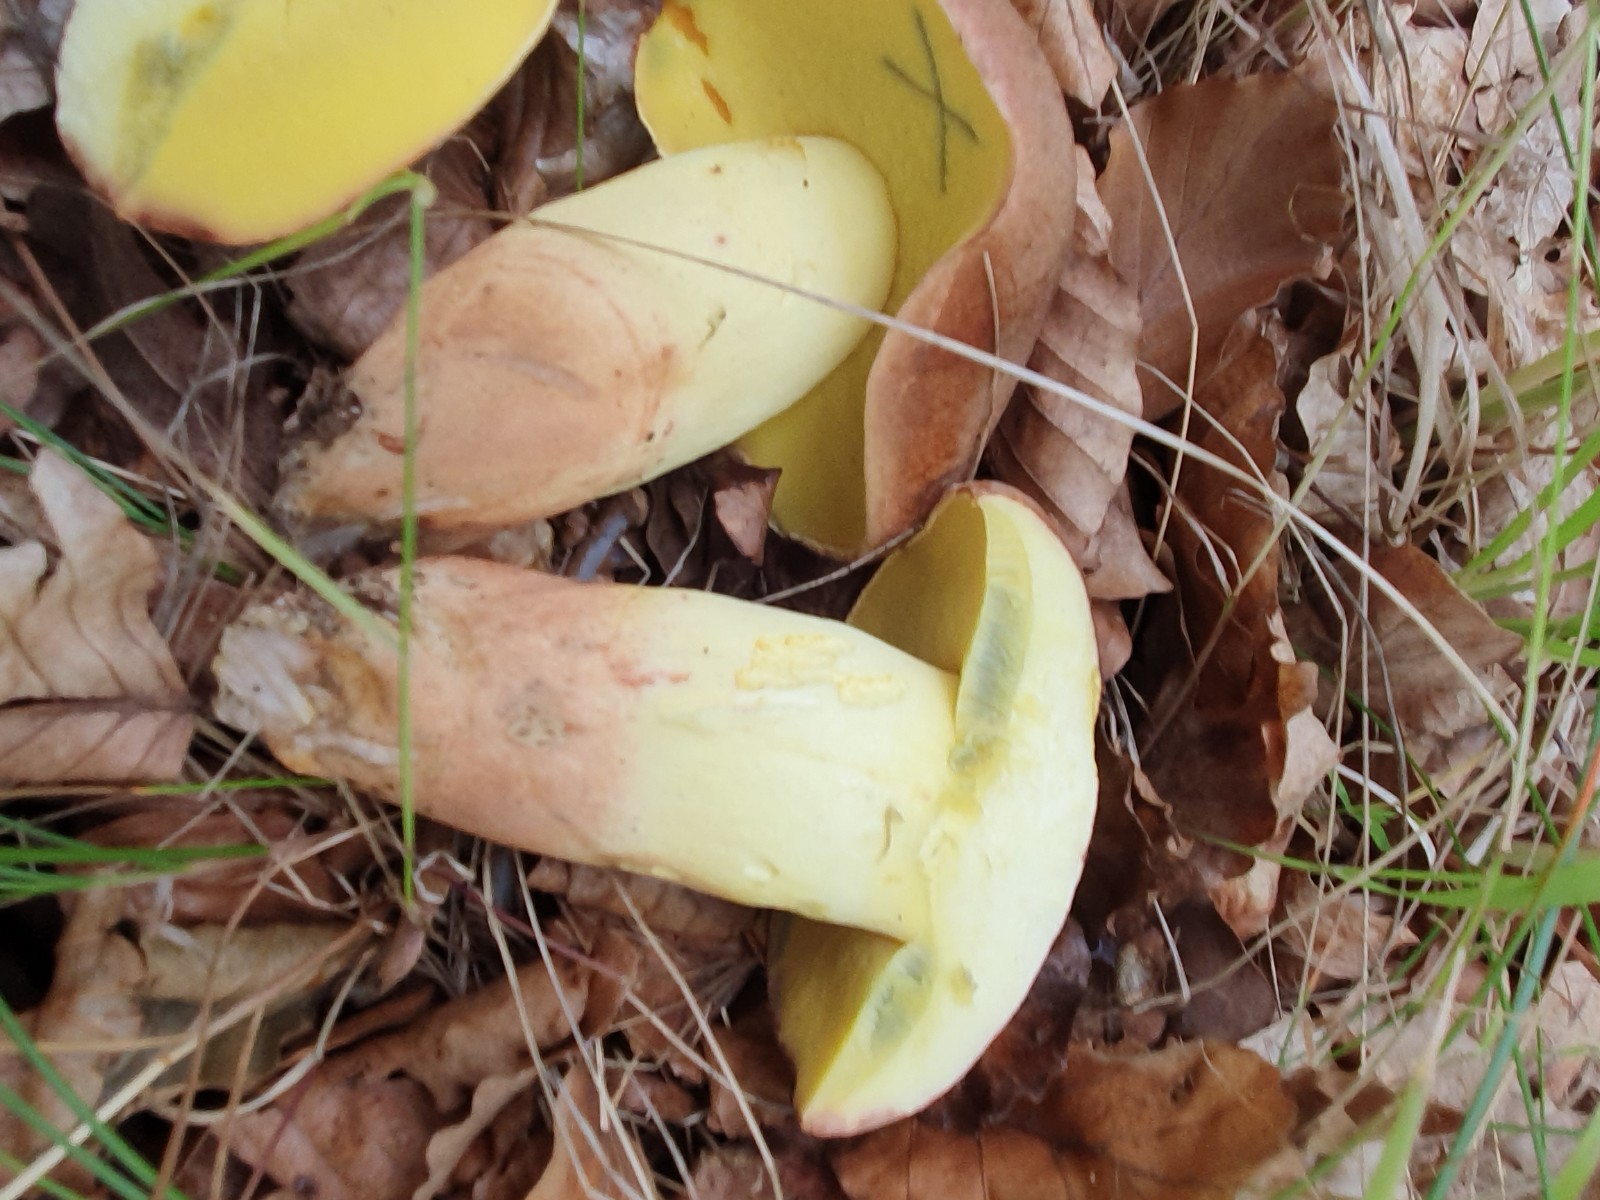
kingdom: Fungi
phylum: Basidiomycota
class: Agaricomycetes
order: Boletales
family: Boletaceae
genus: Butyriboletus
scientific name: Butyriboletus appendiculatus
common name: tenstokket rørhat
